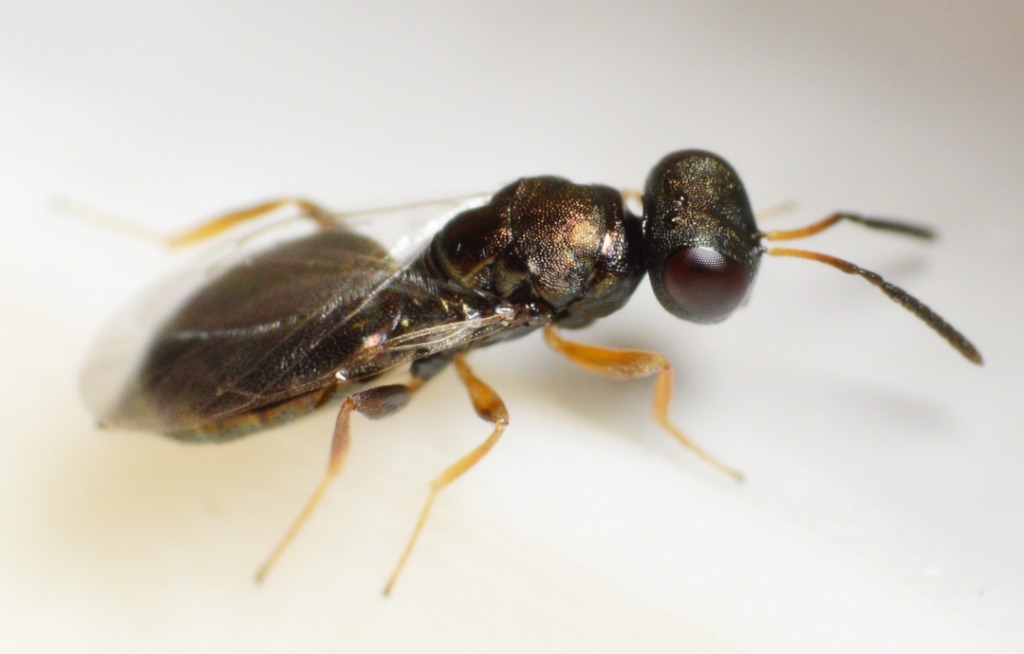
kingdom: Animalia
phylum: Arthropoda
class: Insecta
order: Hymenoptera
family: Pteromalidae
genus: Dibrachys
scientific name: Dibrachys microgastri
